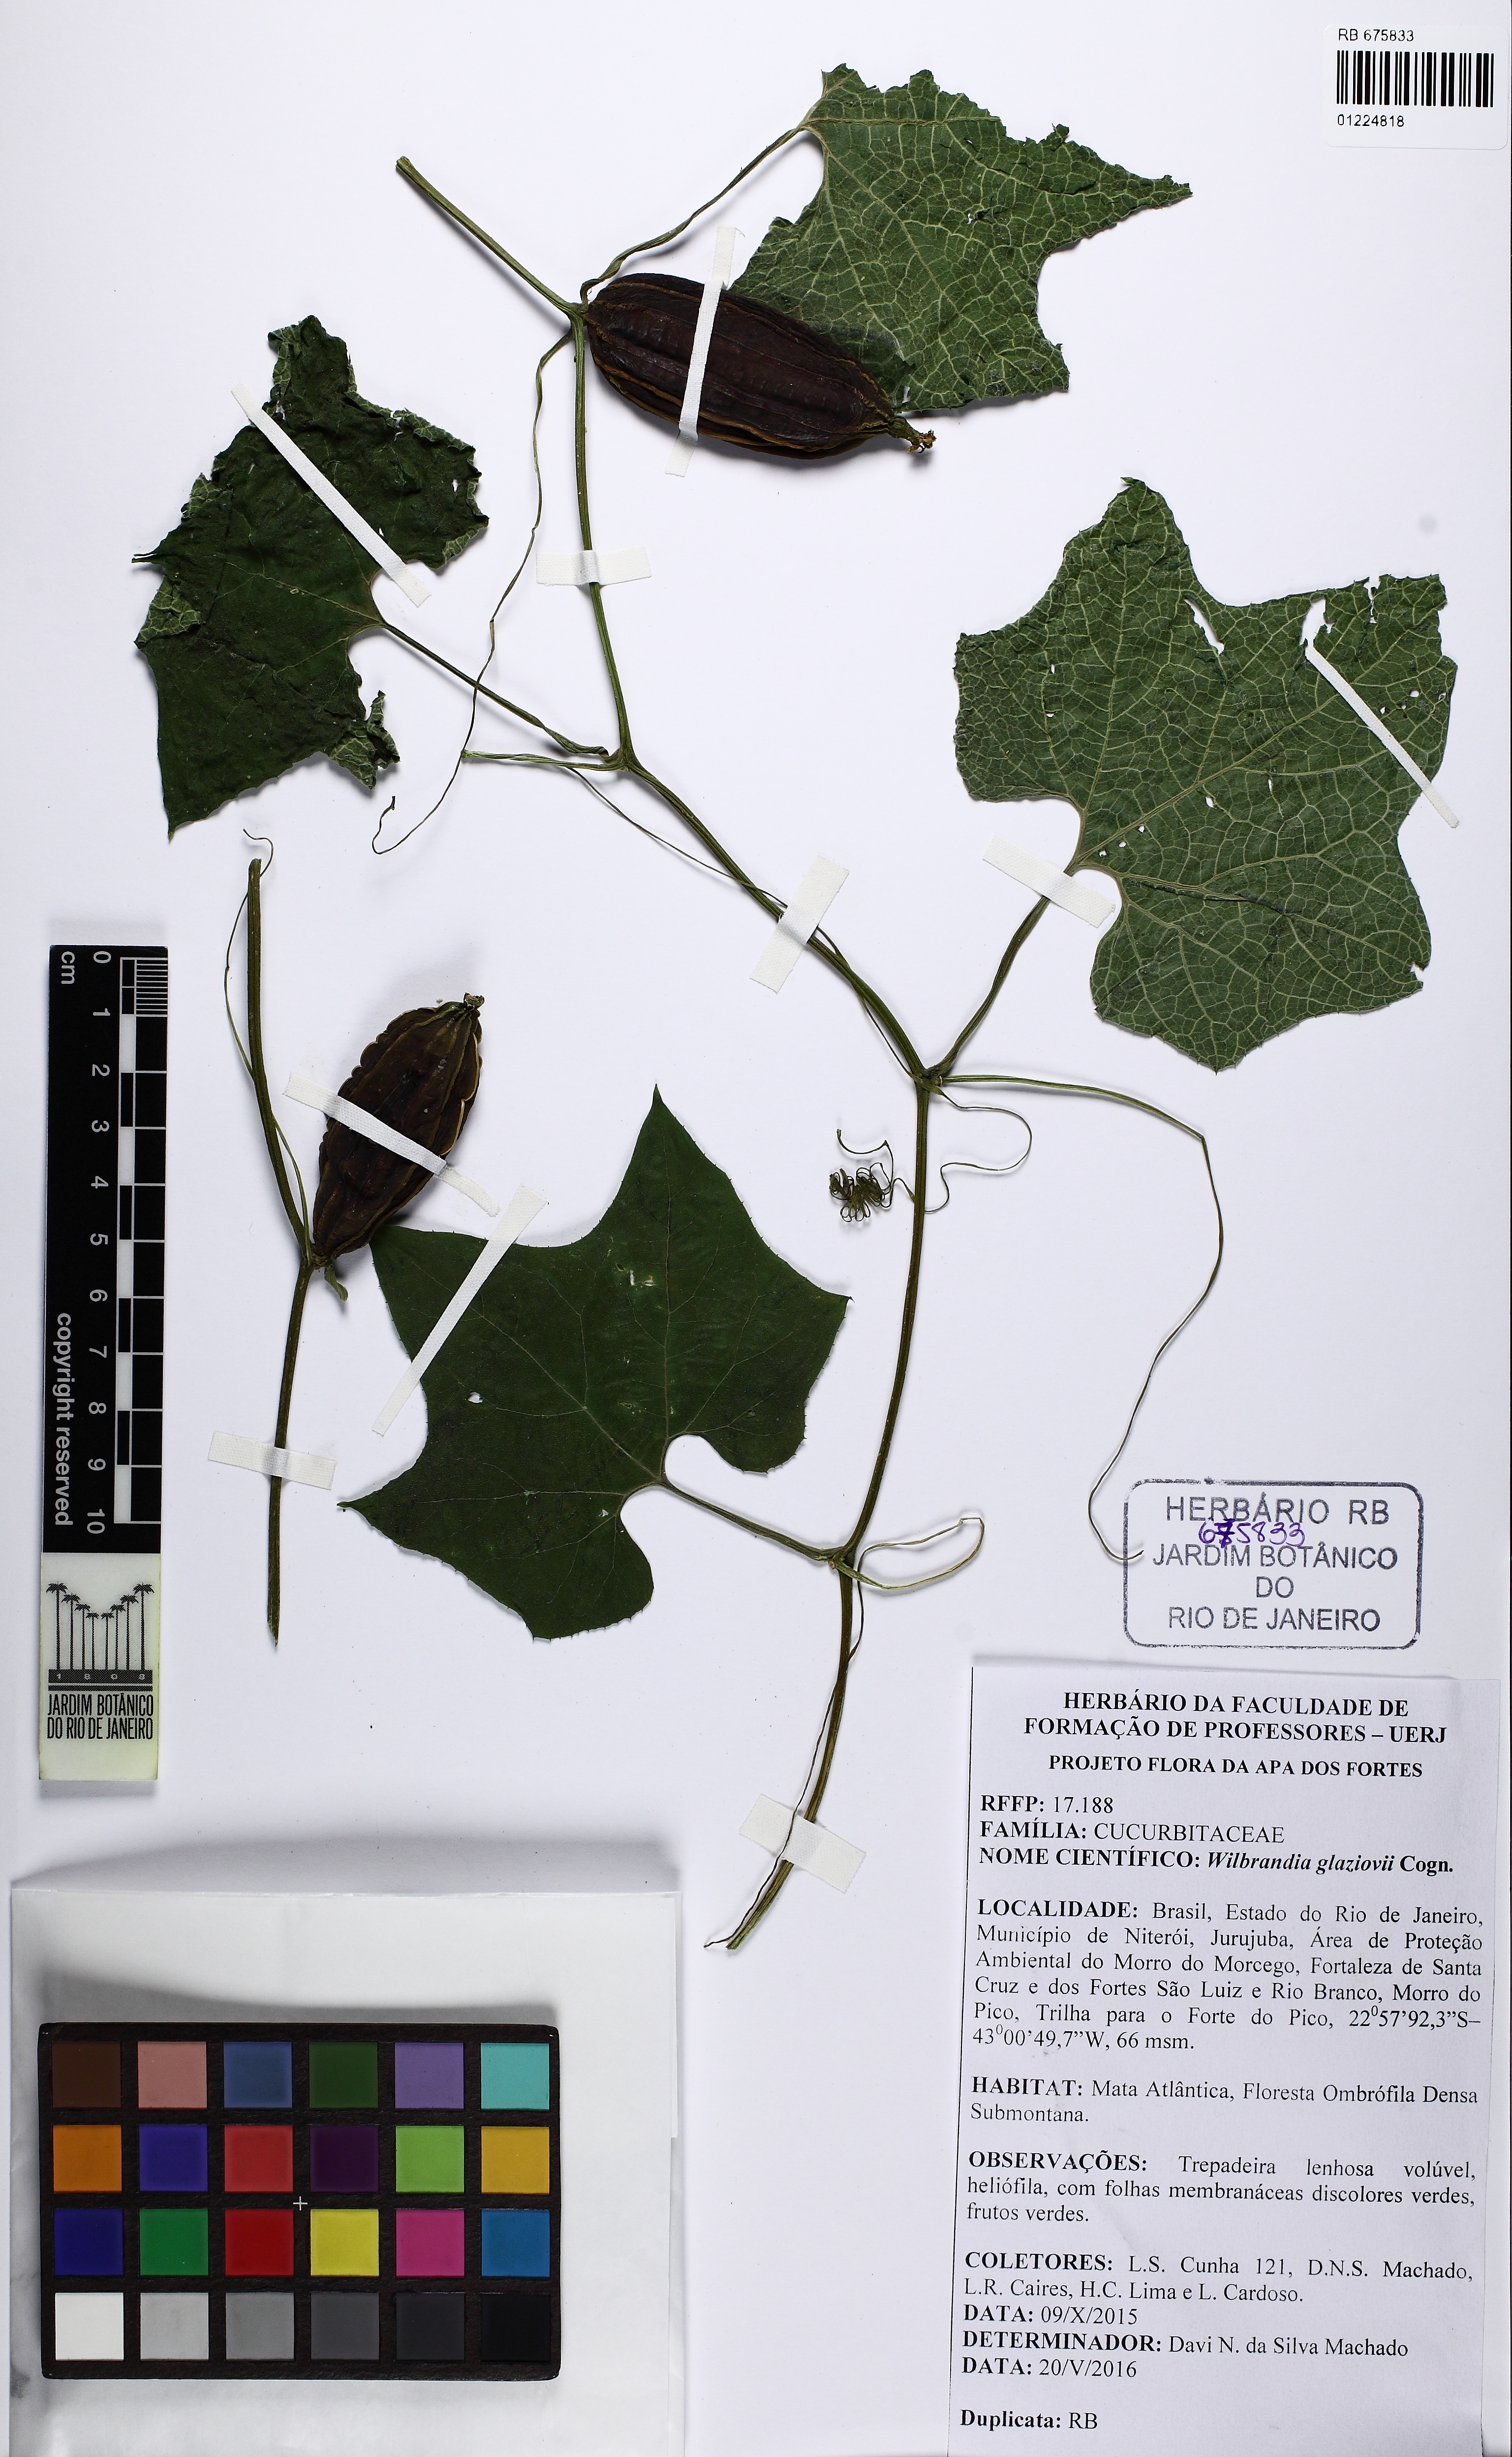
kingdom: Plantae
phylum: Tracheophyta
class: Magnoliopsida
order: Cucurbitales
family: Cucurbitaceae
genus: Wilbrandia
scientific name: Wilbrandia glaziovii
